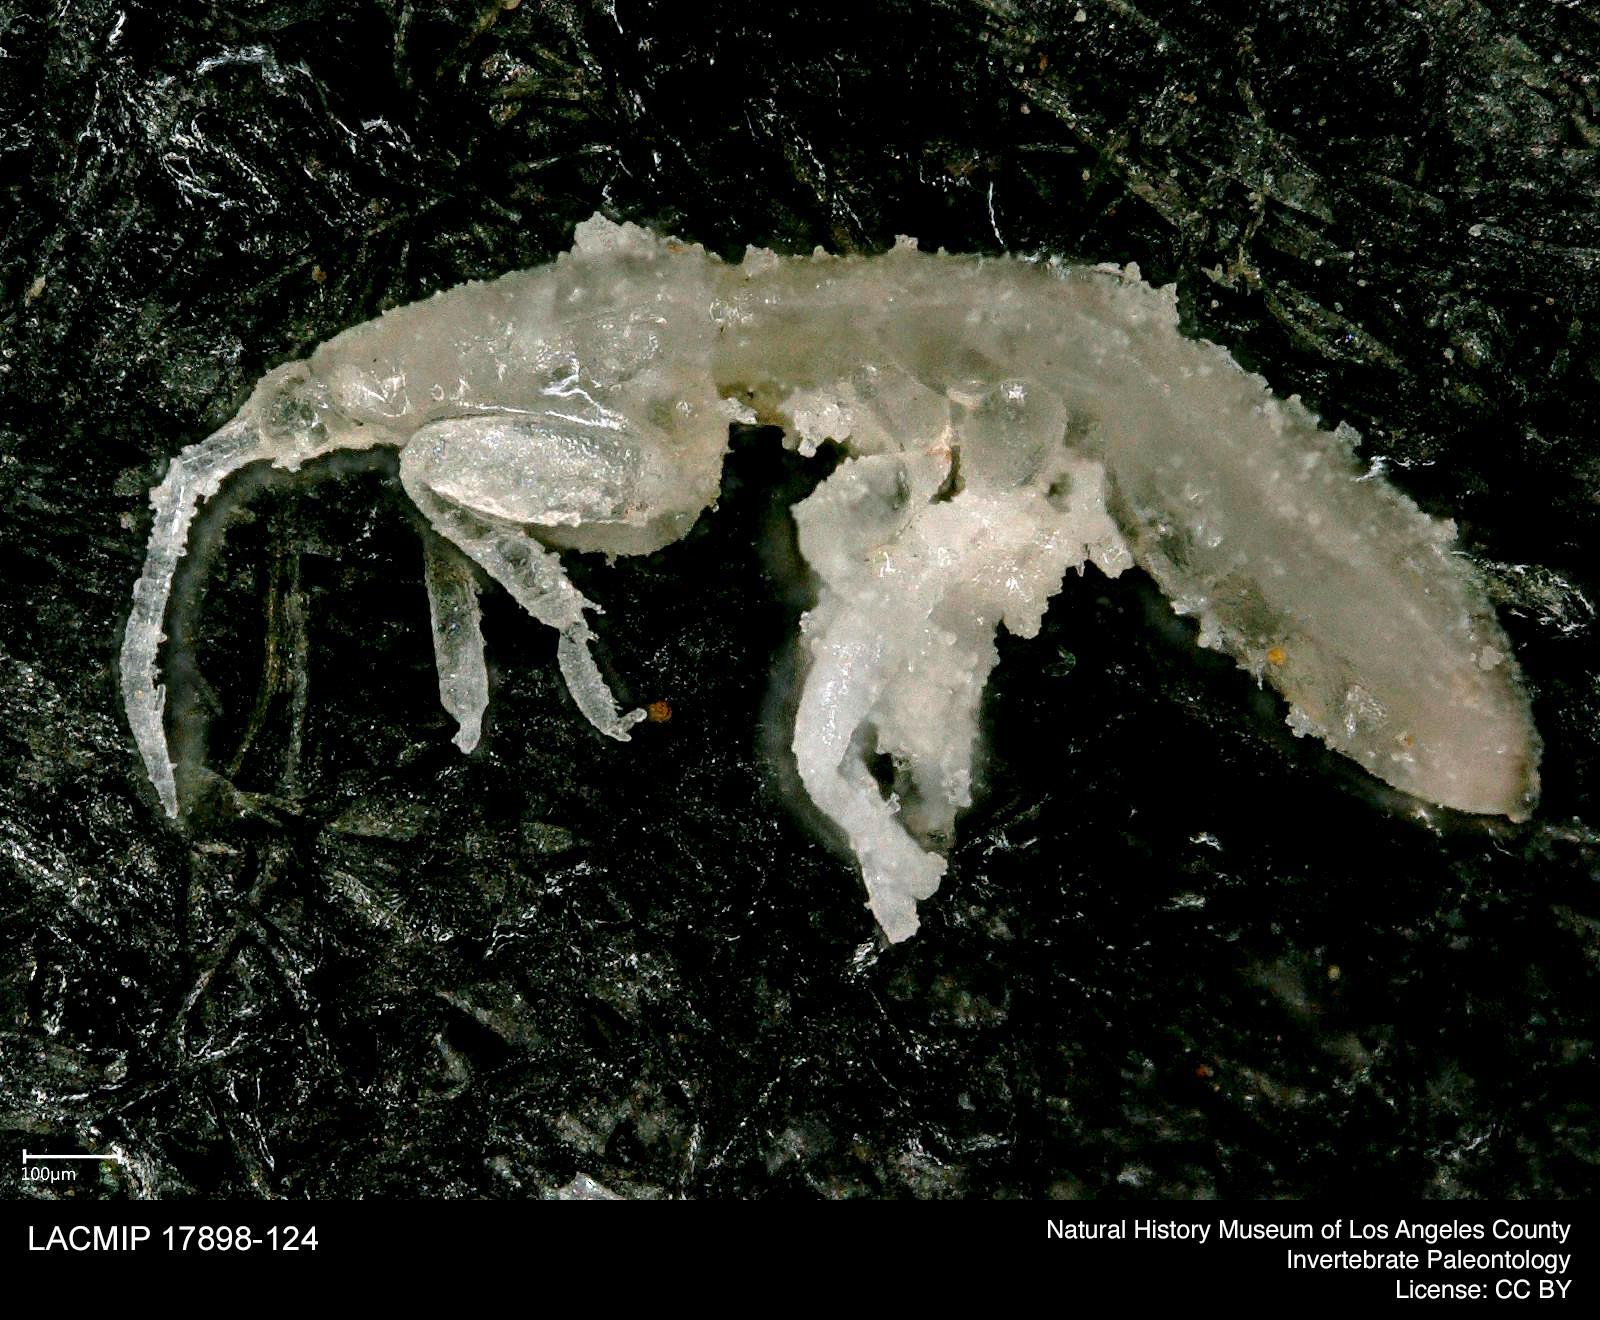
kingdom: Animalia
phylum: Arthropoda
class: Insecta
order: Hemiptera
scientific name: Hemiptera
